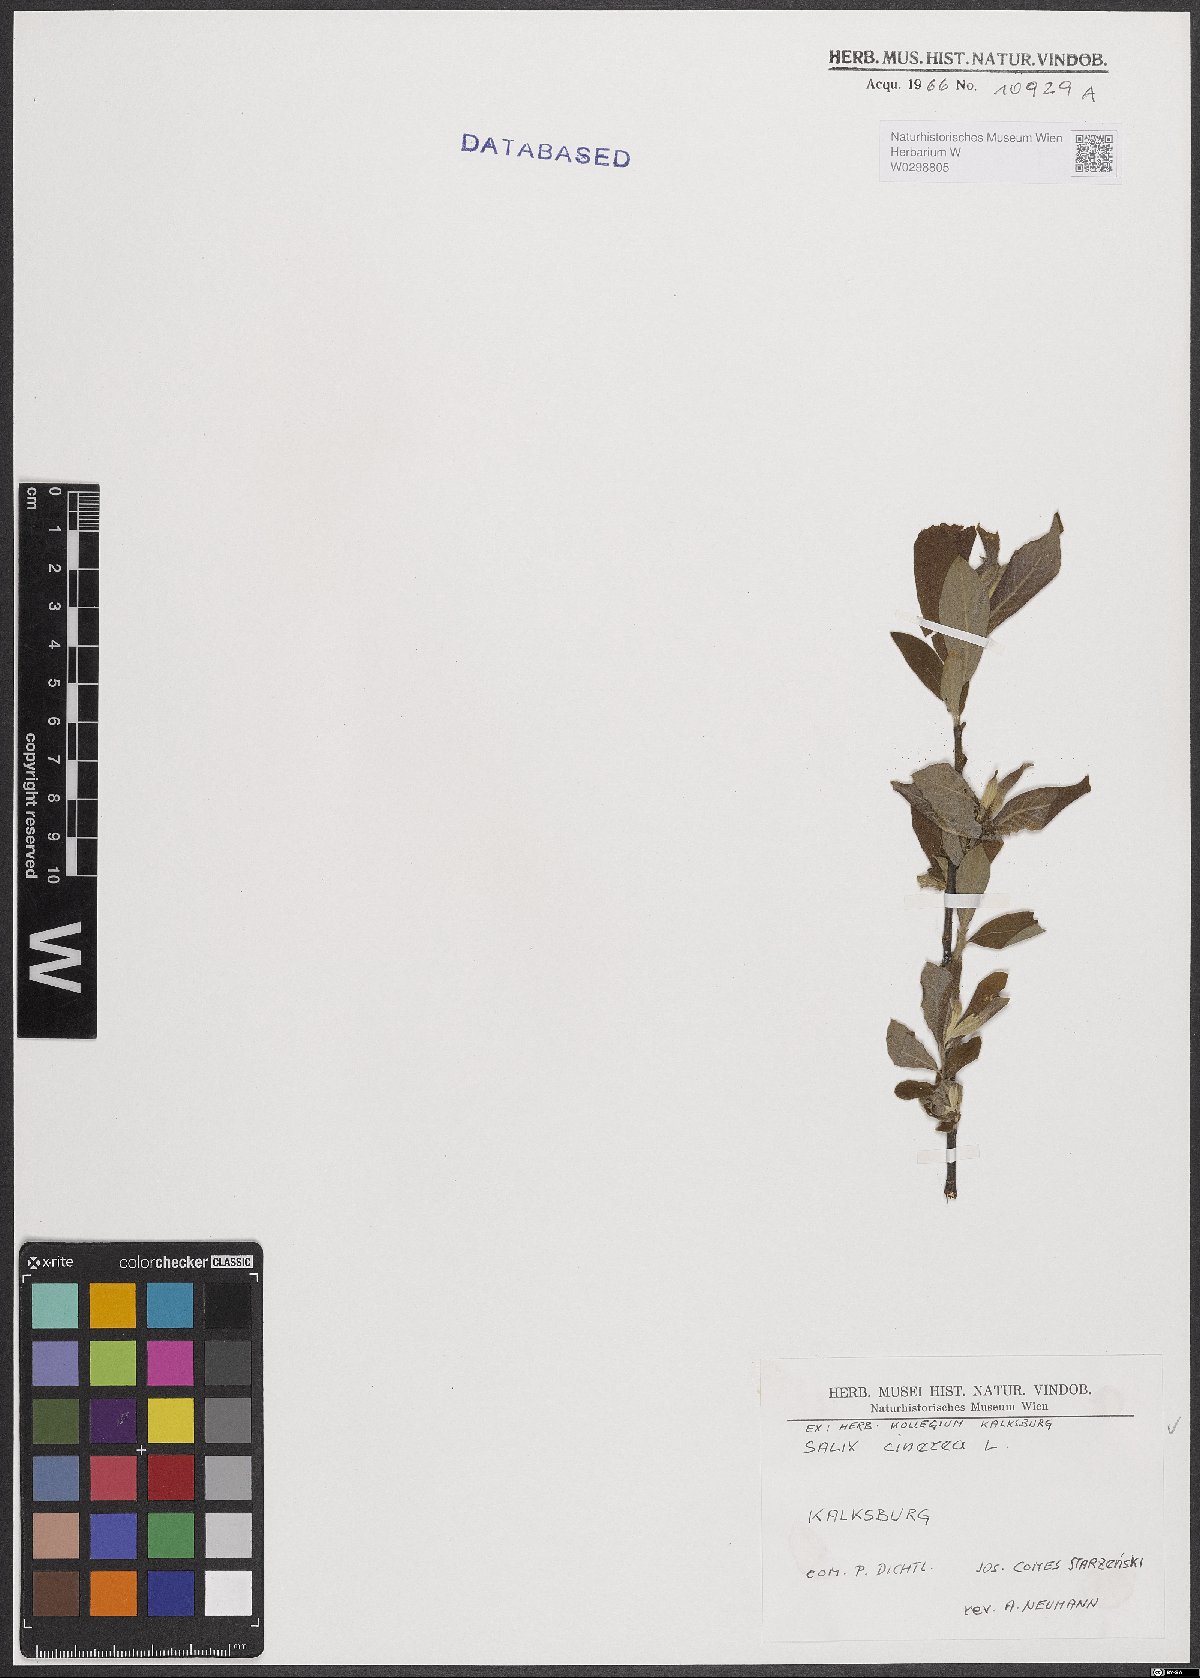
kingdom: Plantae
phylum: Tracheophyta
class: Magnoliopsida
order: Malpighiales
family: Salicaceae
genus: Salix
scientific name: Salix cinerea
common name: Common sallow
